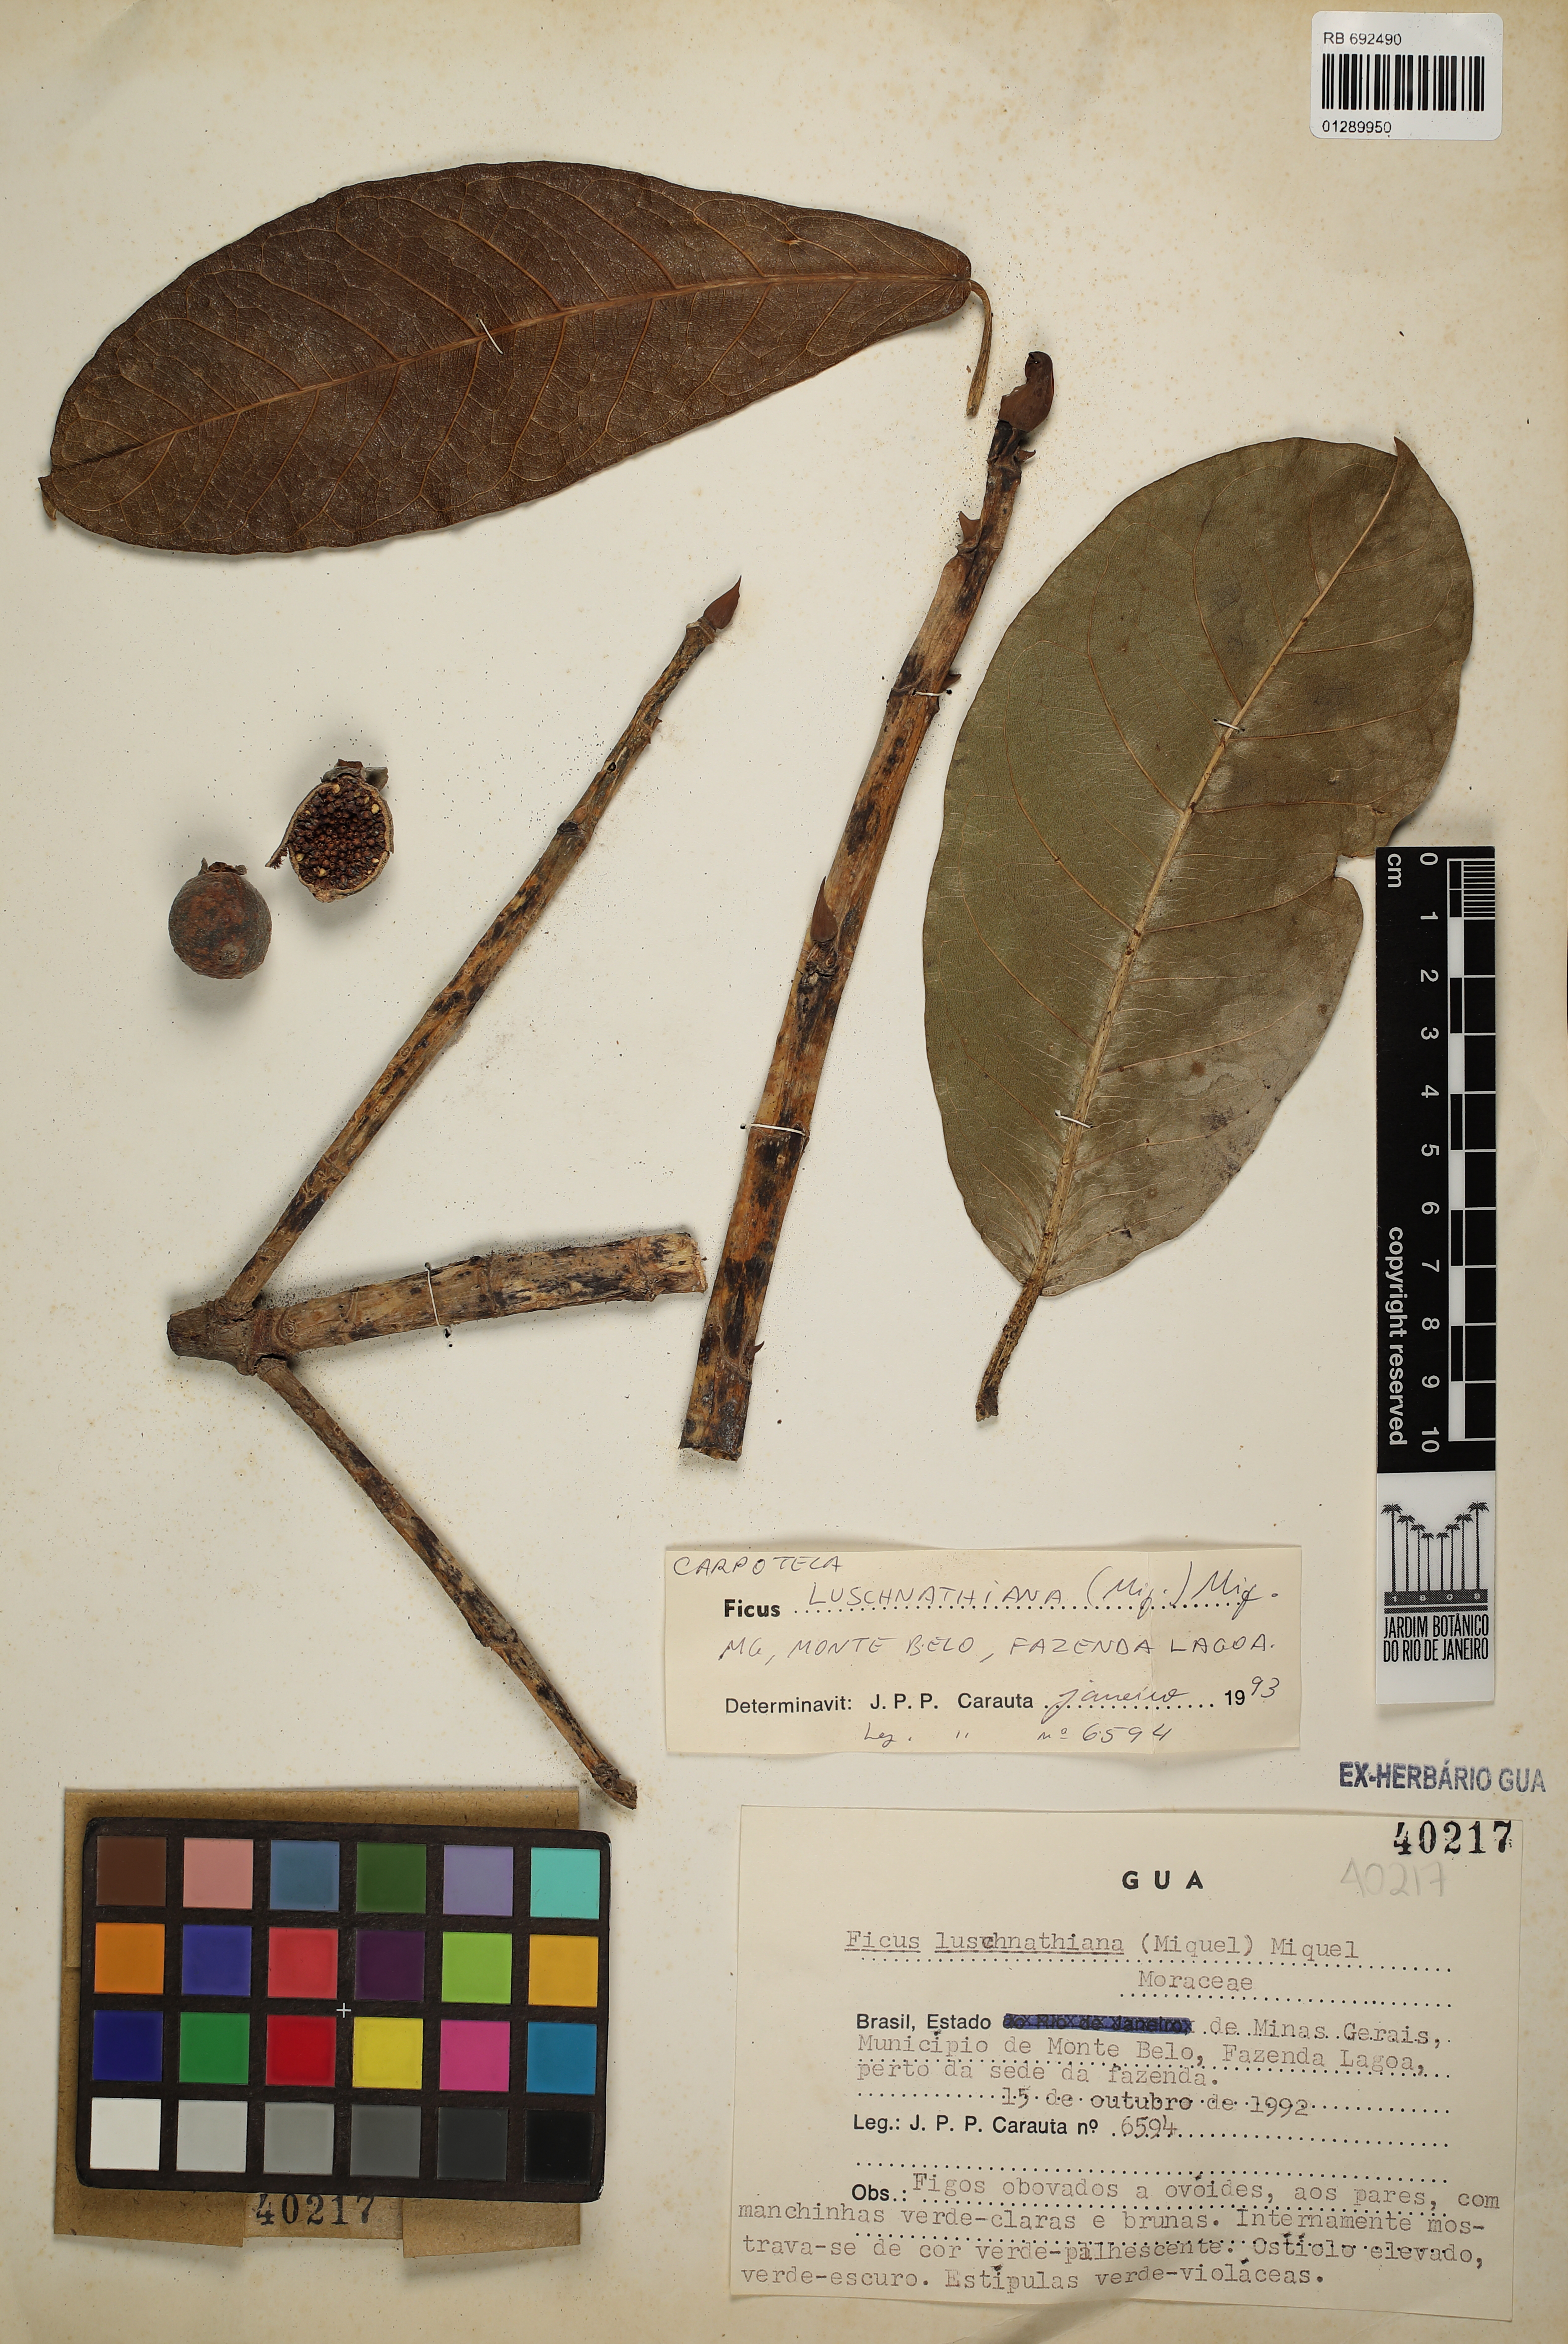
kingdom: Plantae
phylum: Tracheophyta
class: Magnoliopsida
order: Rosales
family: Moraceae
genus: Ficus
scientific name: Ficus luschnathiana
